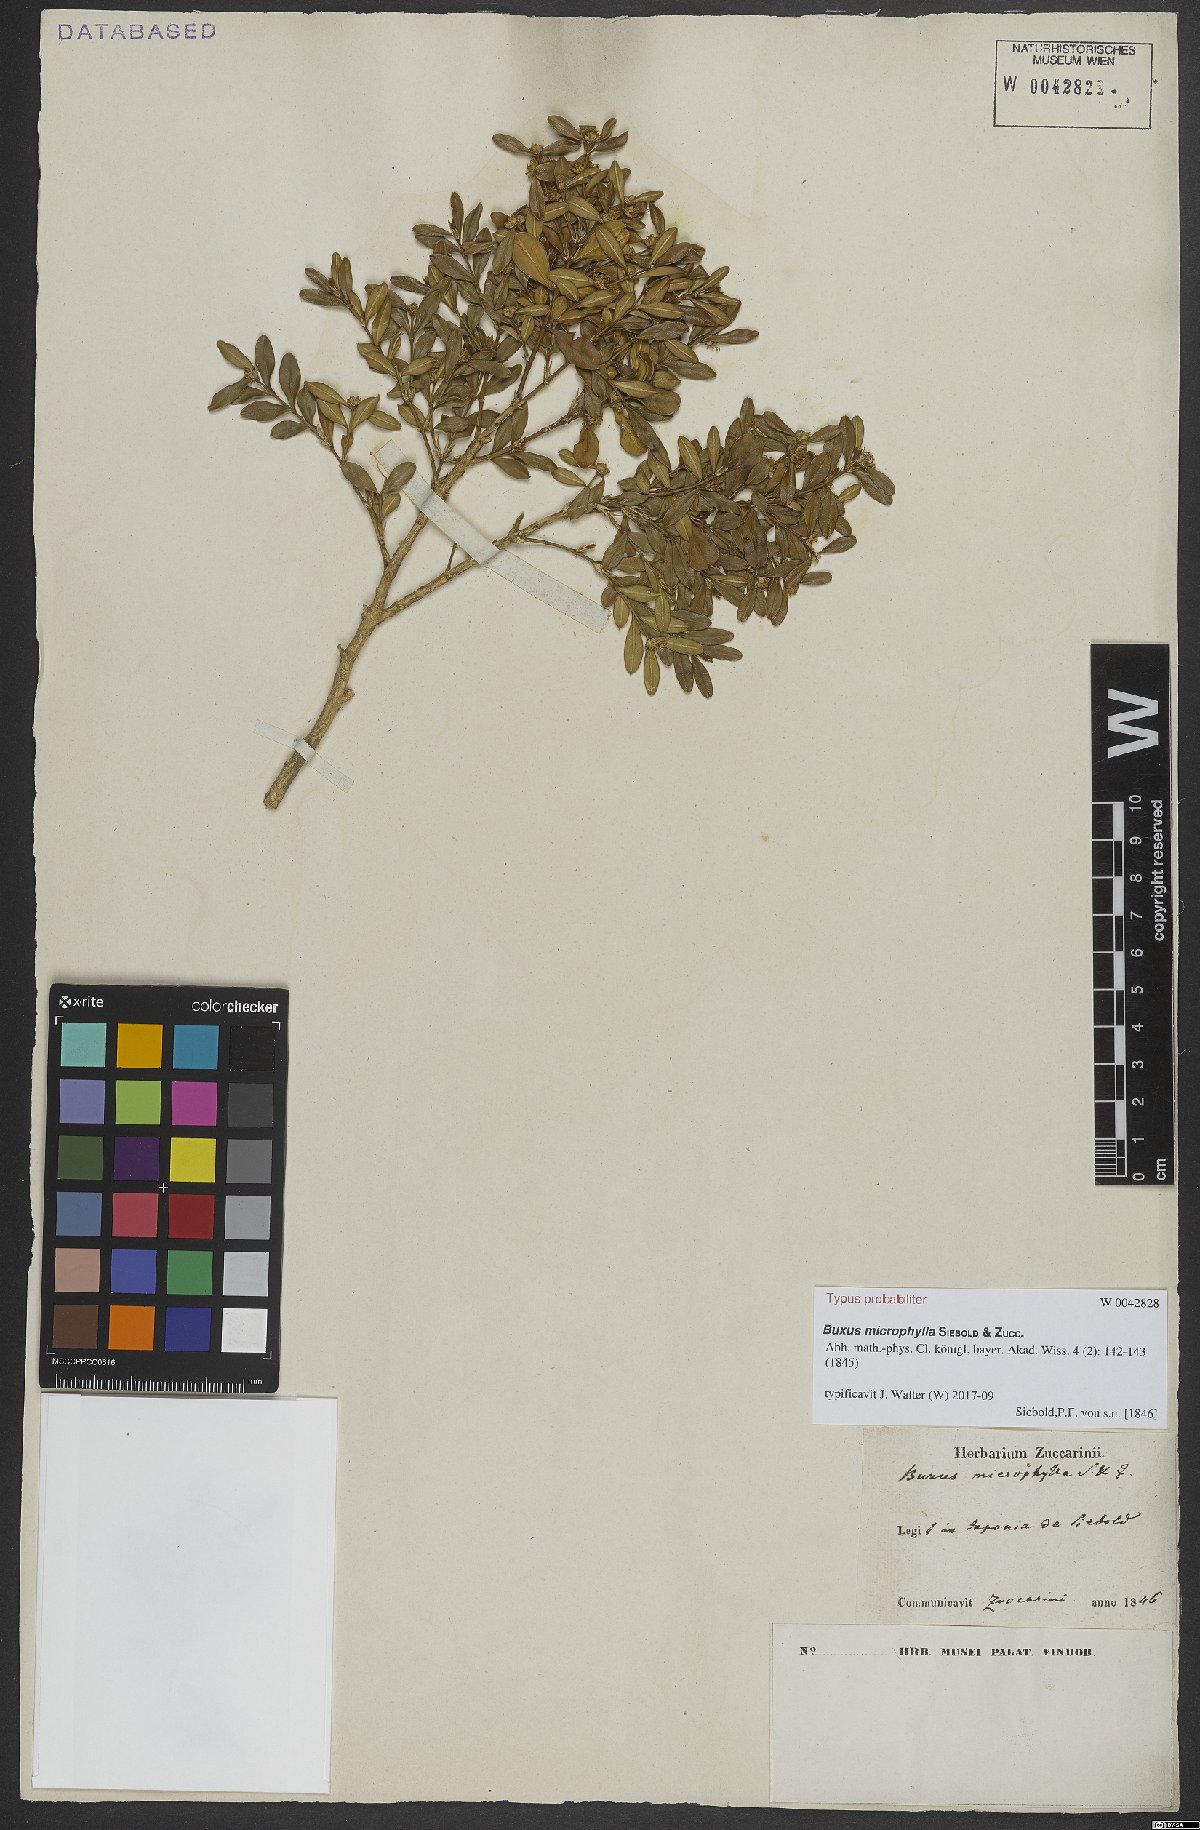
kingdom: Plantae
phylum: Tracheophyta
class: Magnoliopsida
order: Buxales
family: Buxaceae
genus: Buxus
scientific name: Buxus microphylla
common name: Littleleaf boxwood
